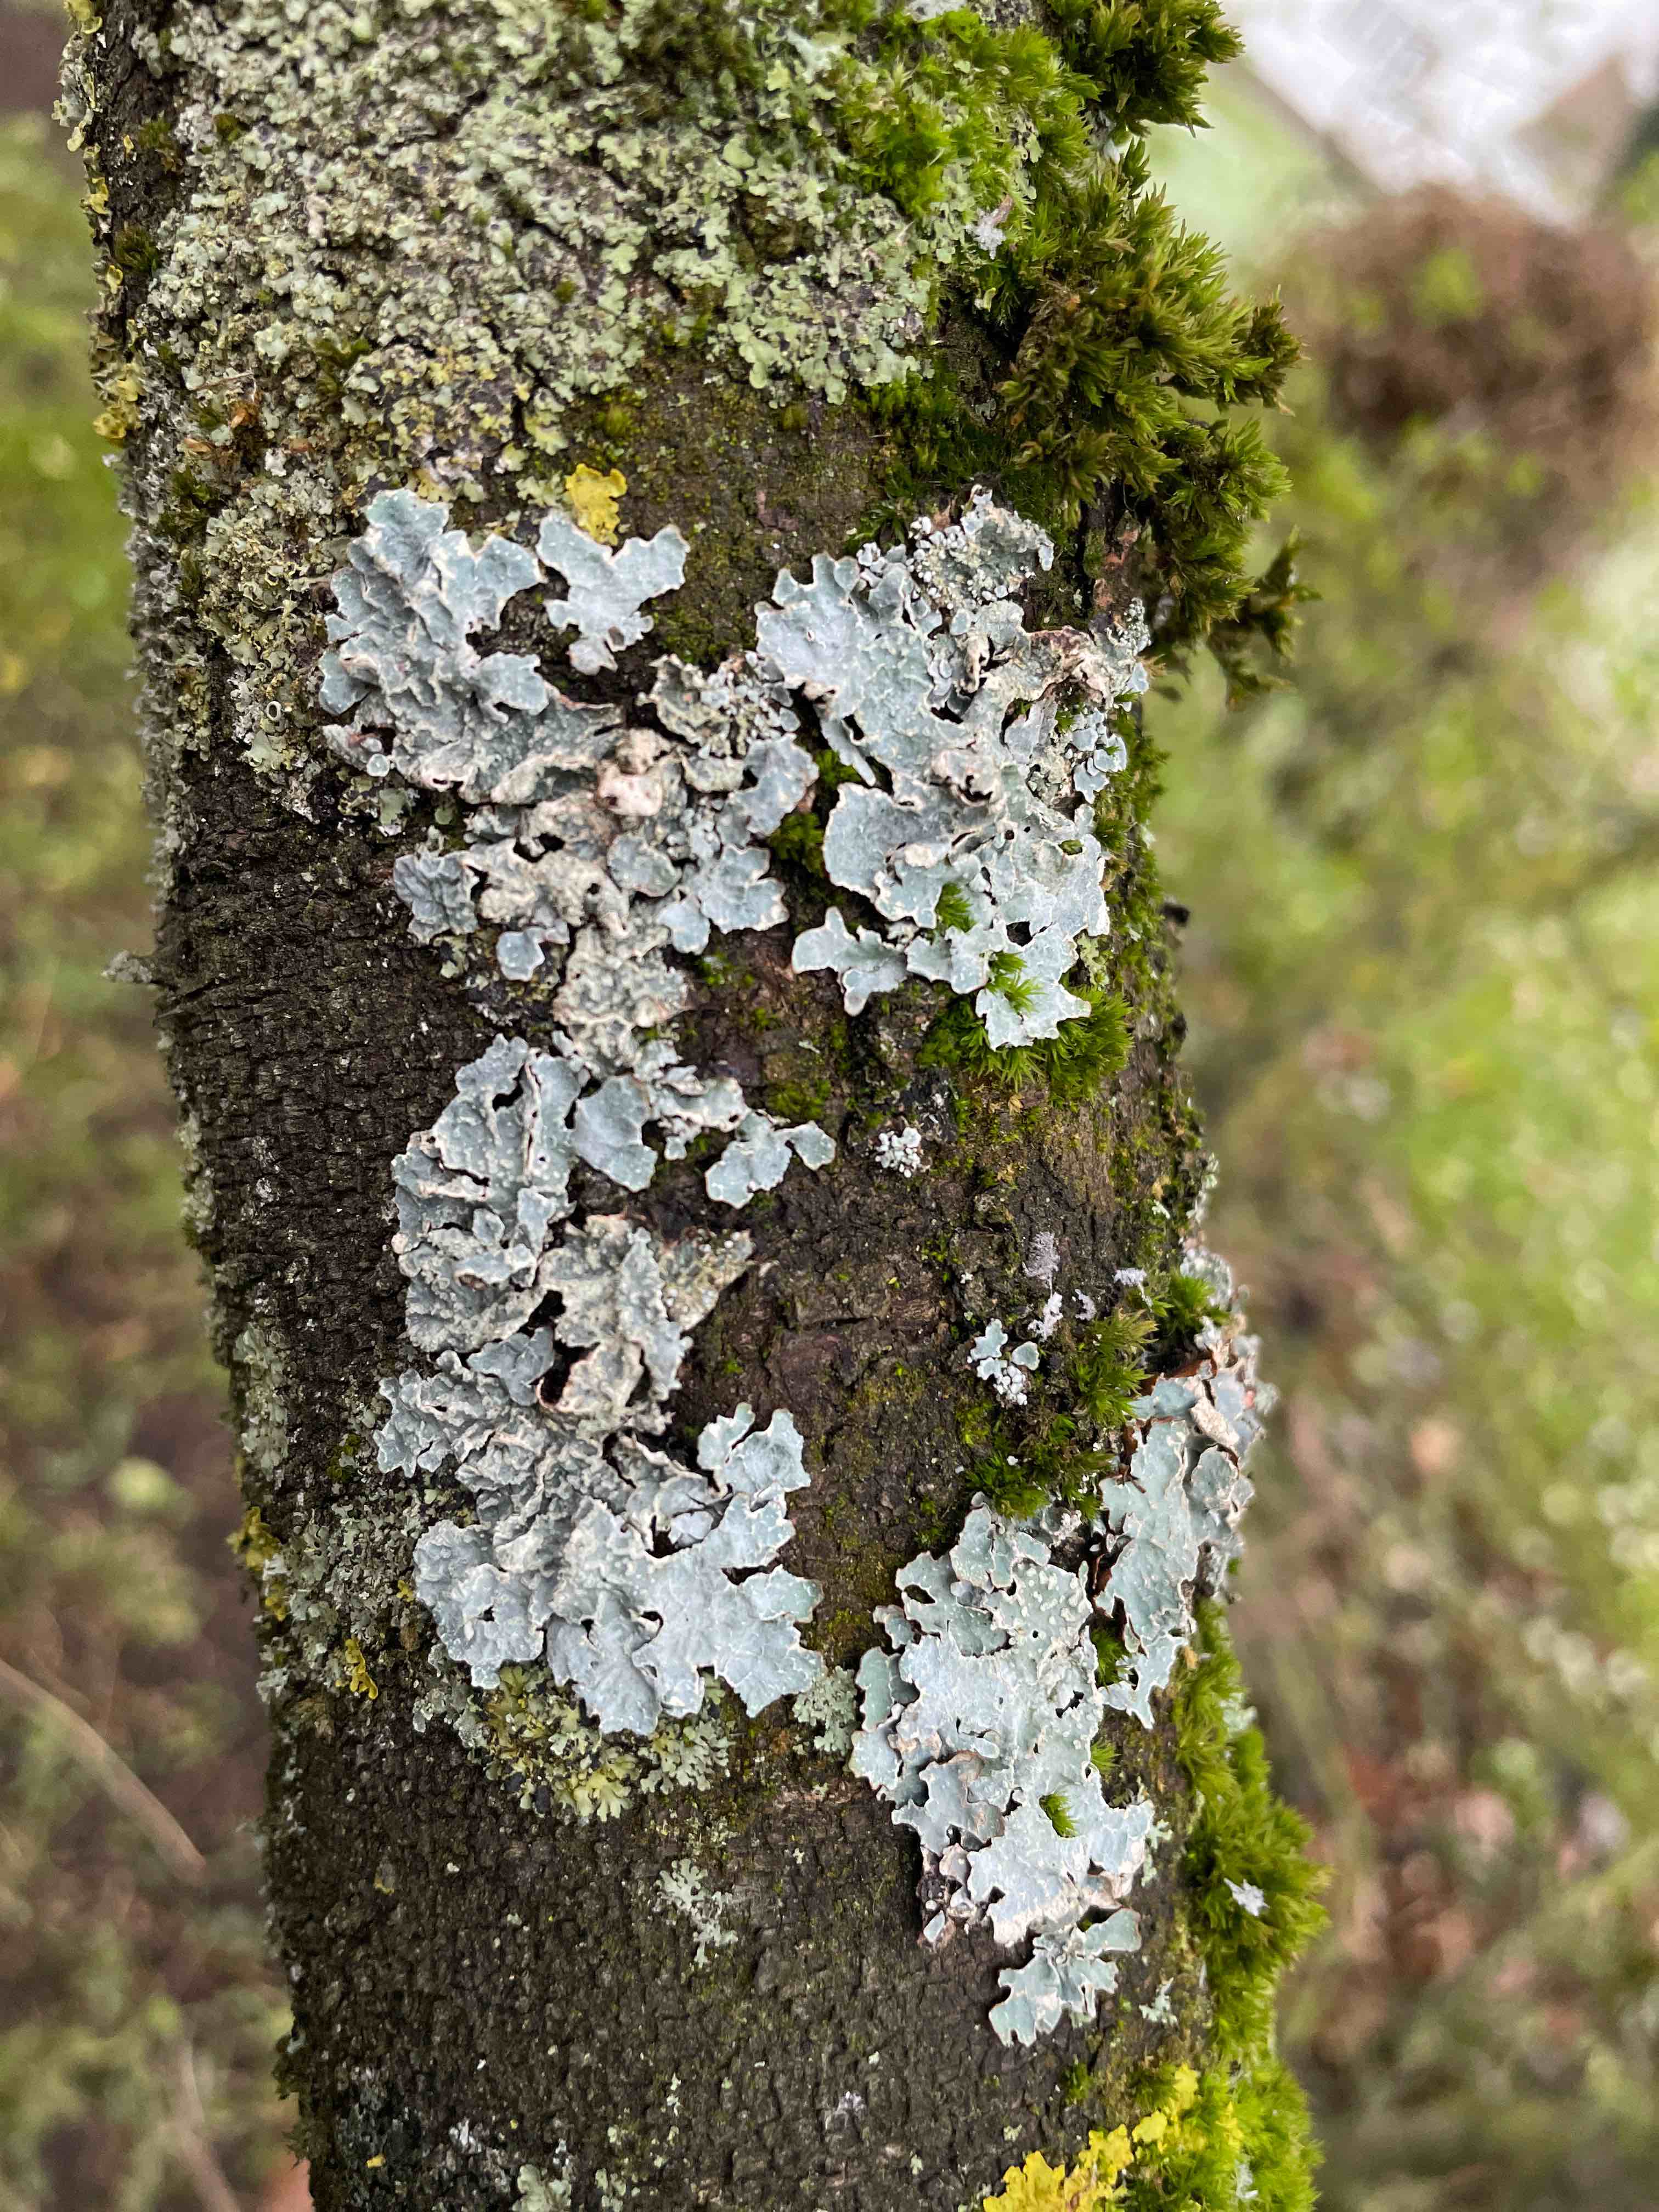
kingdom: Fungi
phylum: Ascomycota
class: Lecanoromycetes
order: Lecanorales
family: Parmeliaceae
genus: Parmelia
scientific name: Parmelia sulcata
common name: rynket skållav
